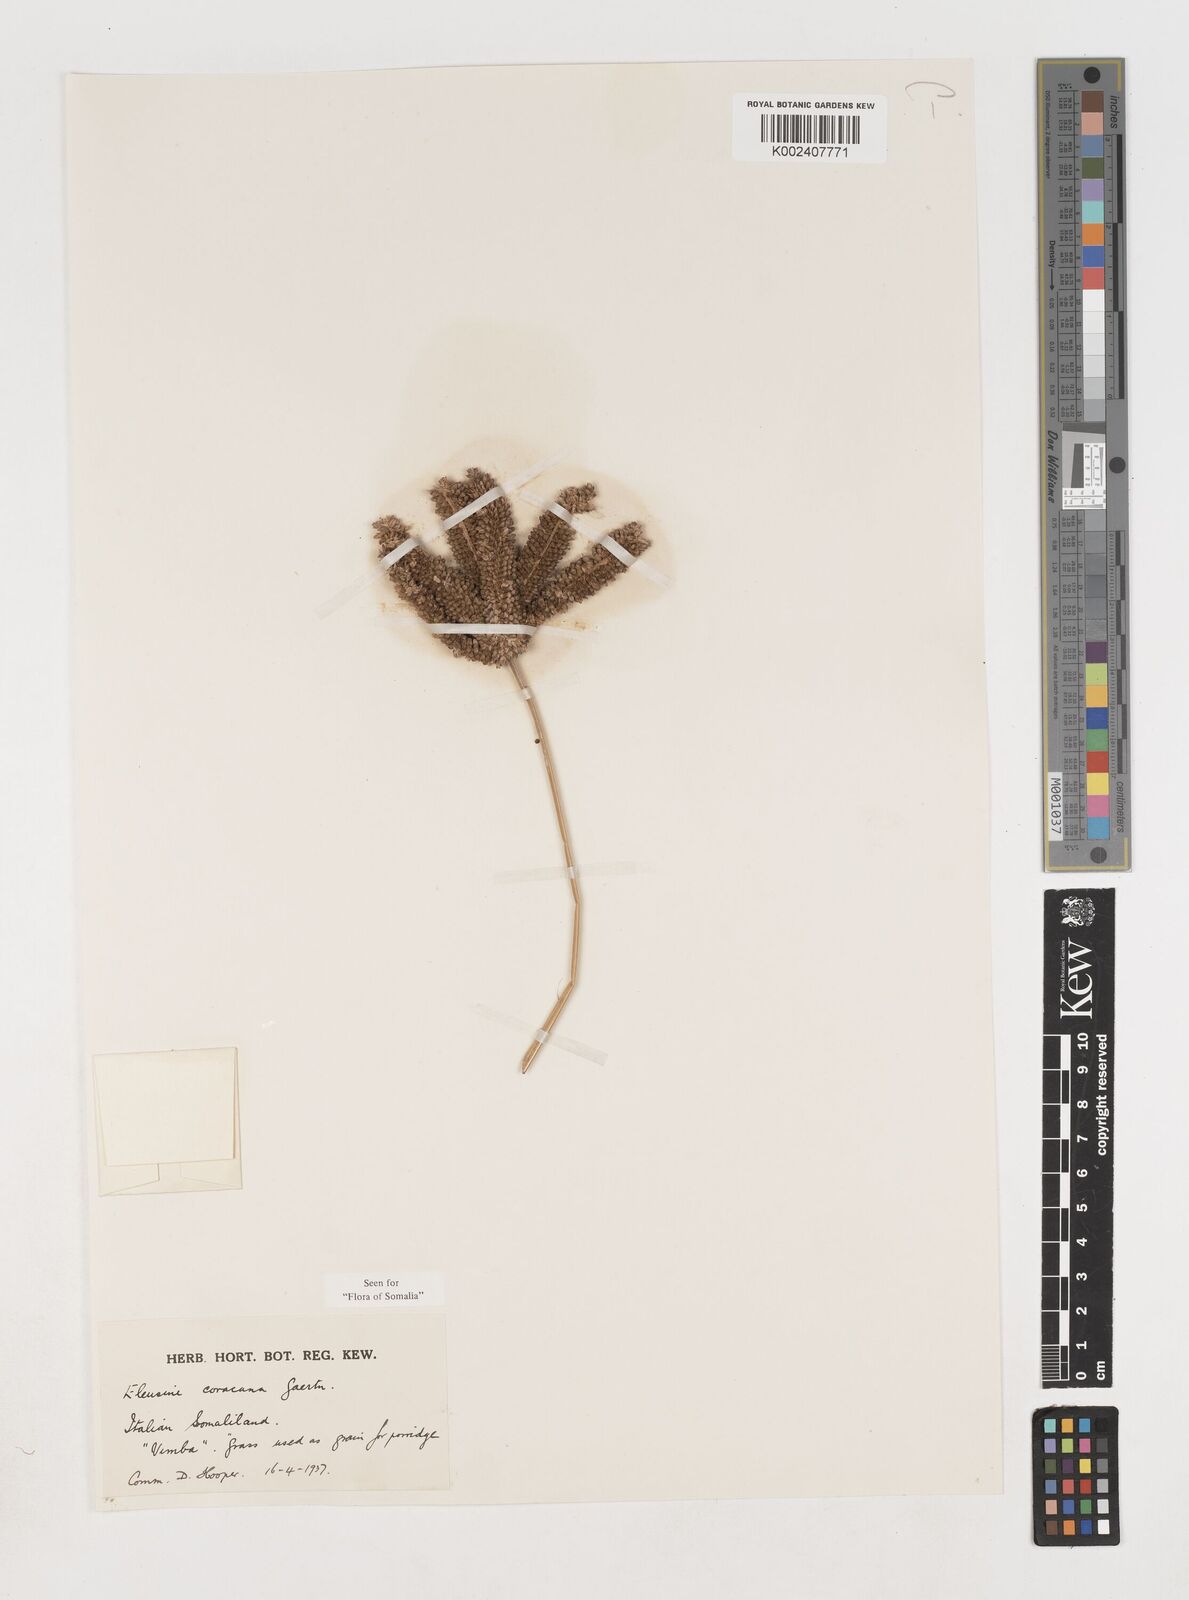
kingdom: Plantae
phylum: Tracheophyta
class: Liliopsida
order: Poales
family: Poaceae
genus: Eleusine
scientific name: Eleusine coracana
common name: Finger millet
